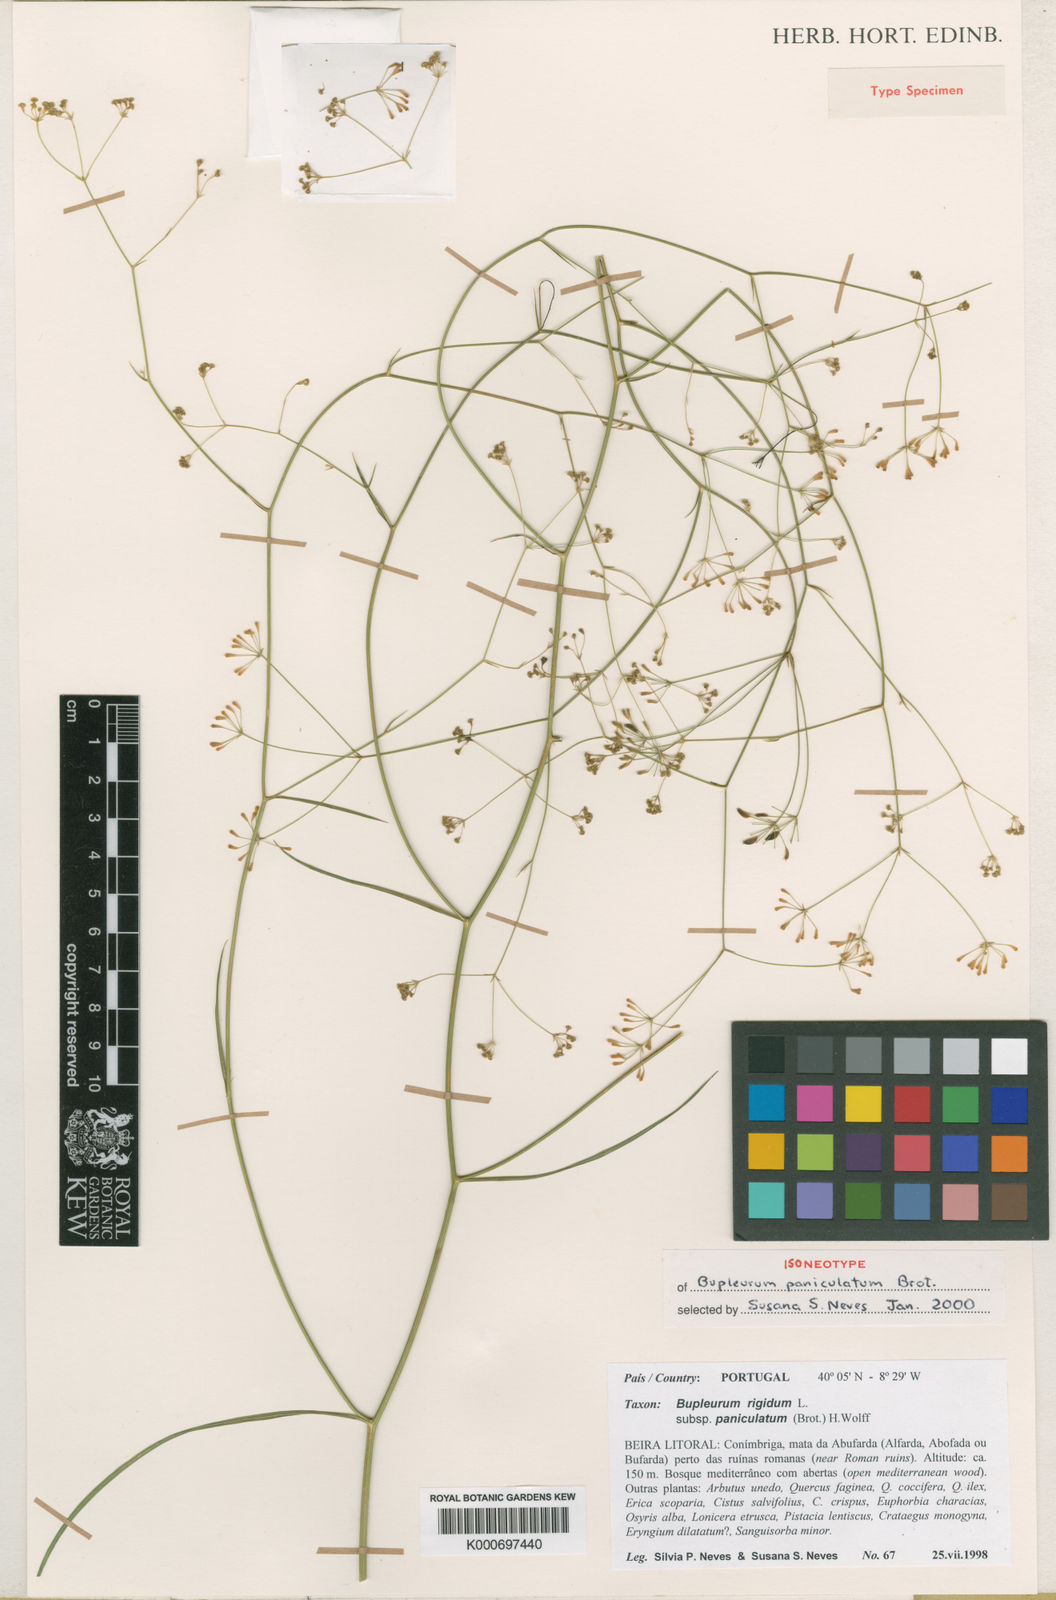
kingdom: Plantae
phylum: Tracheophyta
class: Magnoliopsida
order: Apiales
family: Apiaceae
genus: Bupleurum
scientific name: Bupleurum rigidum
